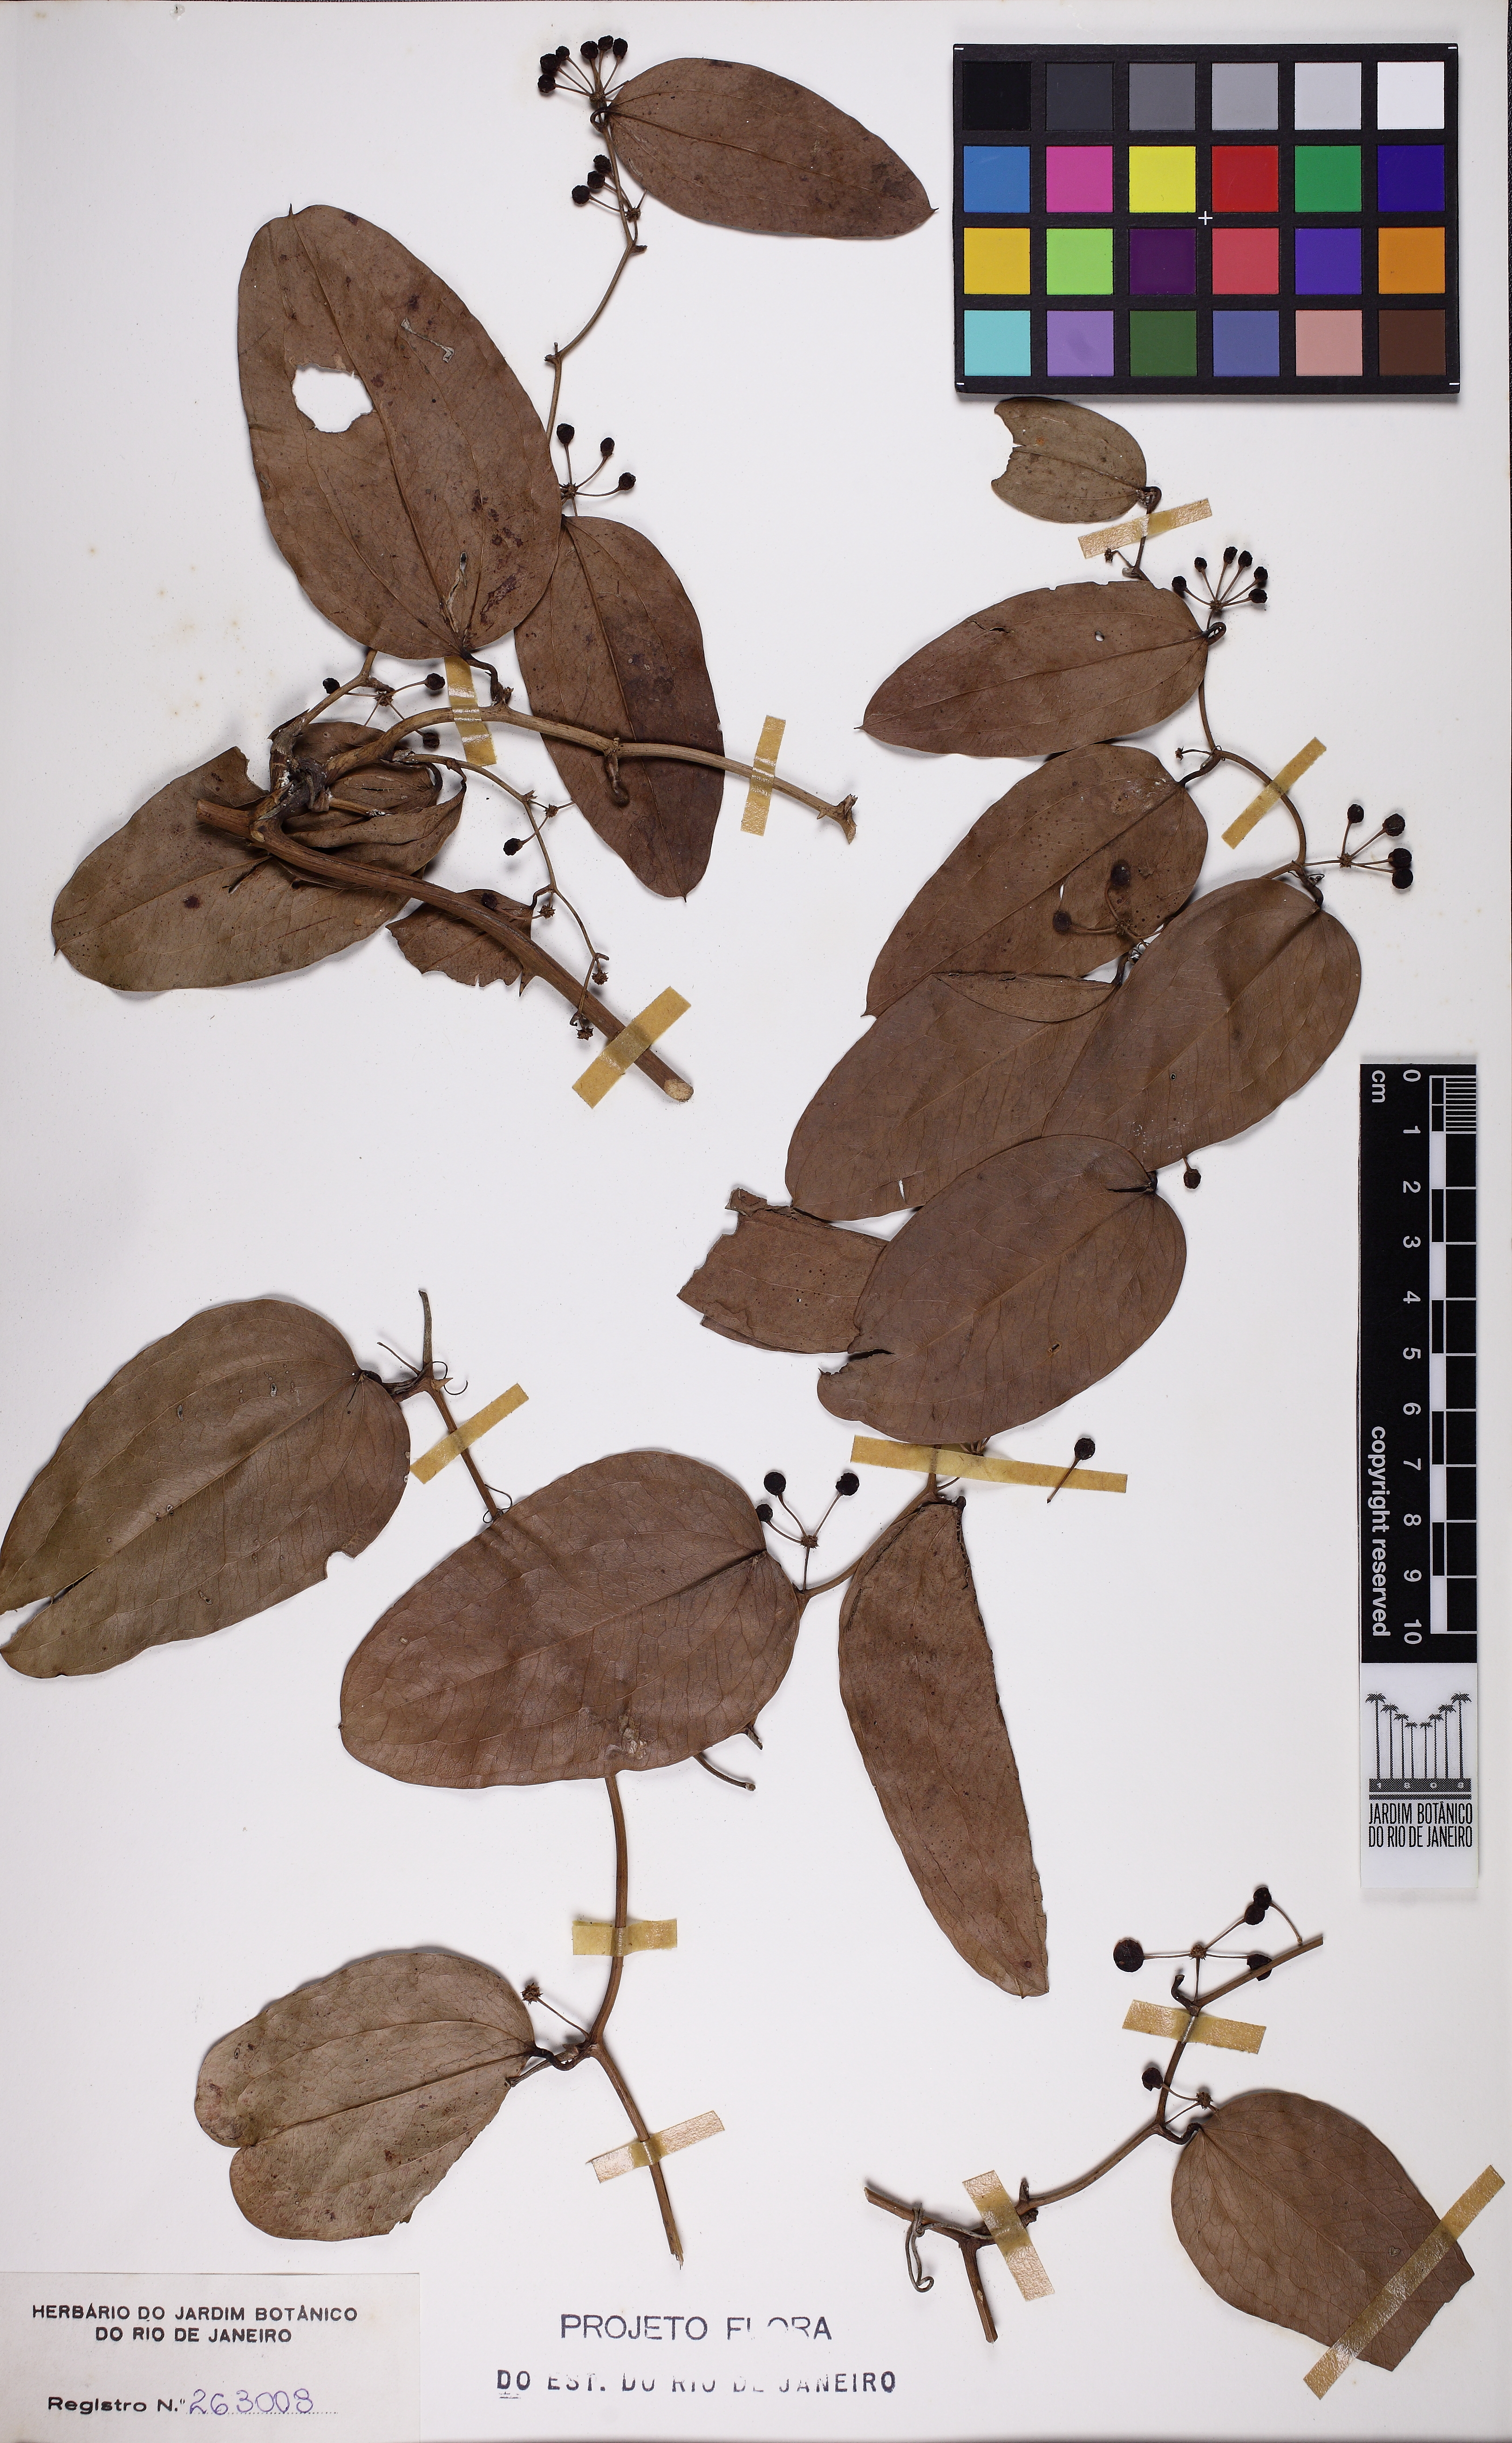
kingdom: Plantae
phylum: Tracheophyta
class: Liliopsida
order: Liliales
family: Smilacaceae
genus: Smilax
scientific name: Smilax elastica
